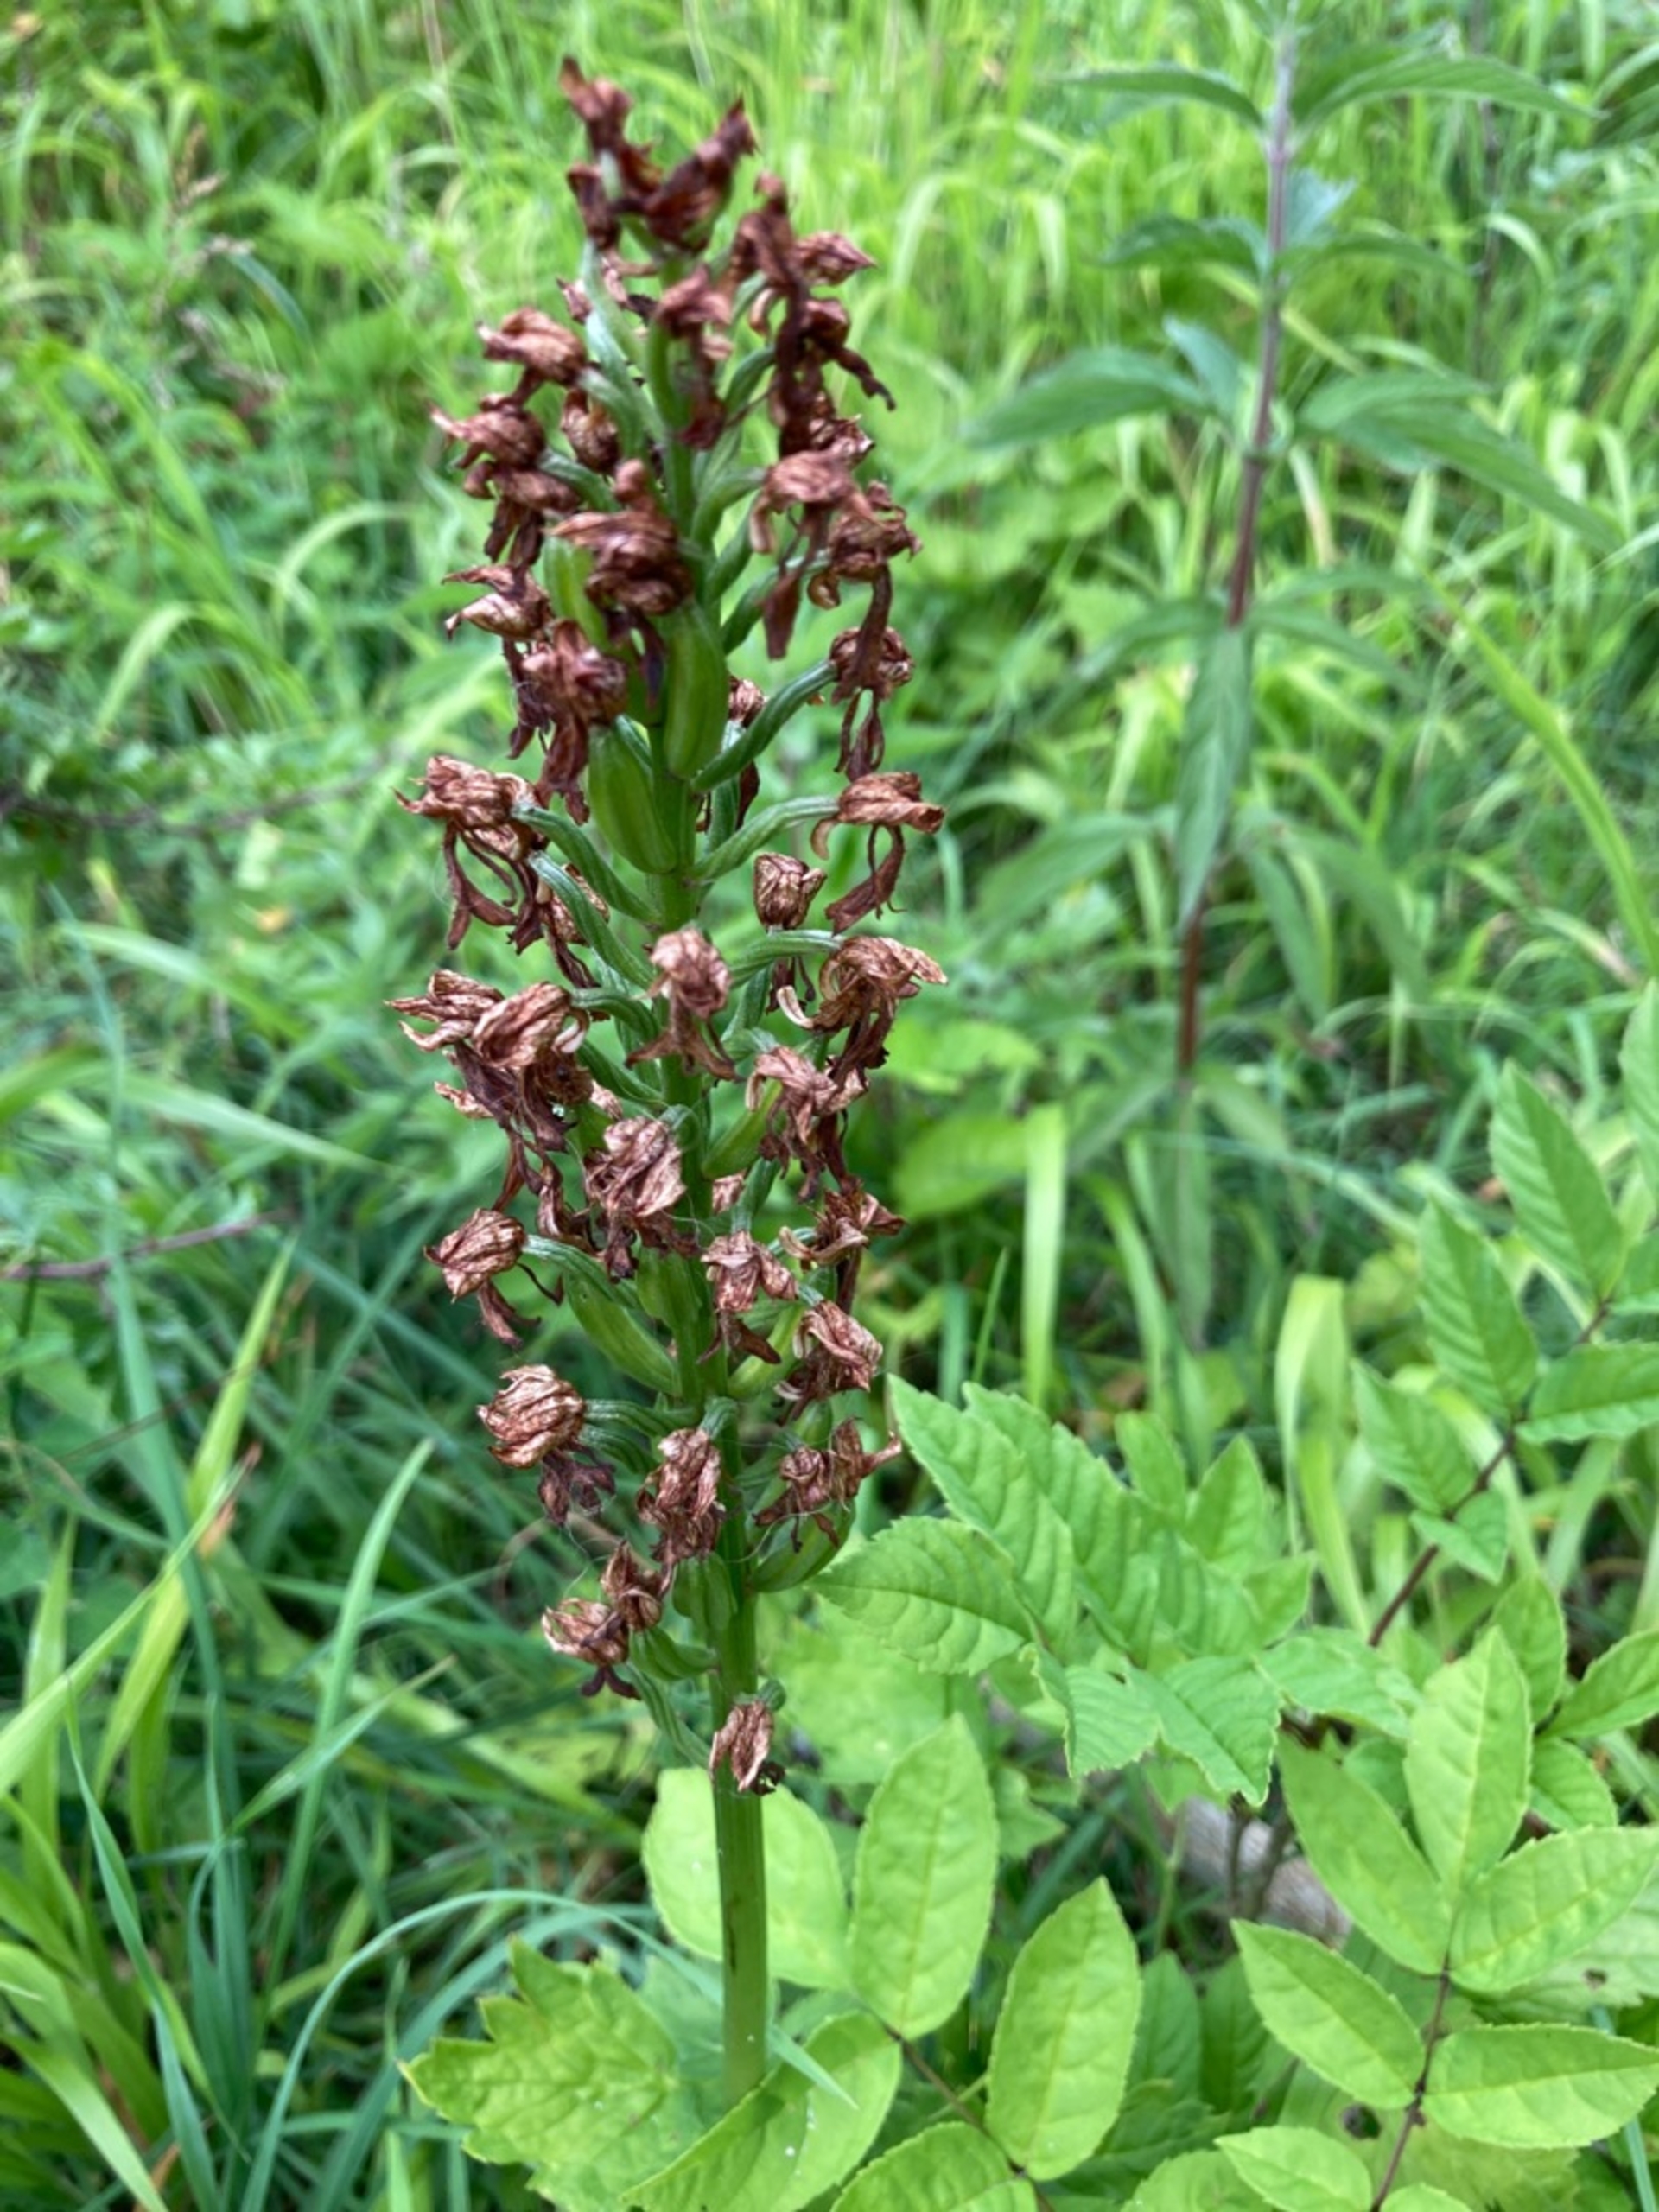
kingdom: Plantae
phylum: Tracheophyta
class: Liliopsida
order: Asparagales
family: Orchidaceae
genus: Orchis
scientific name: Orchis purpurea
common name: Stor gøgeurt
